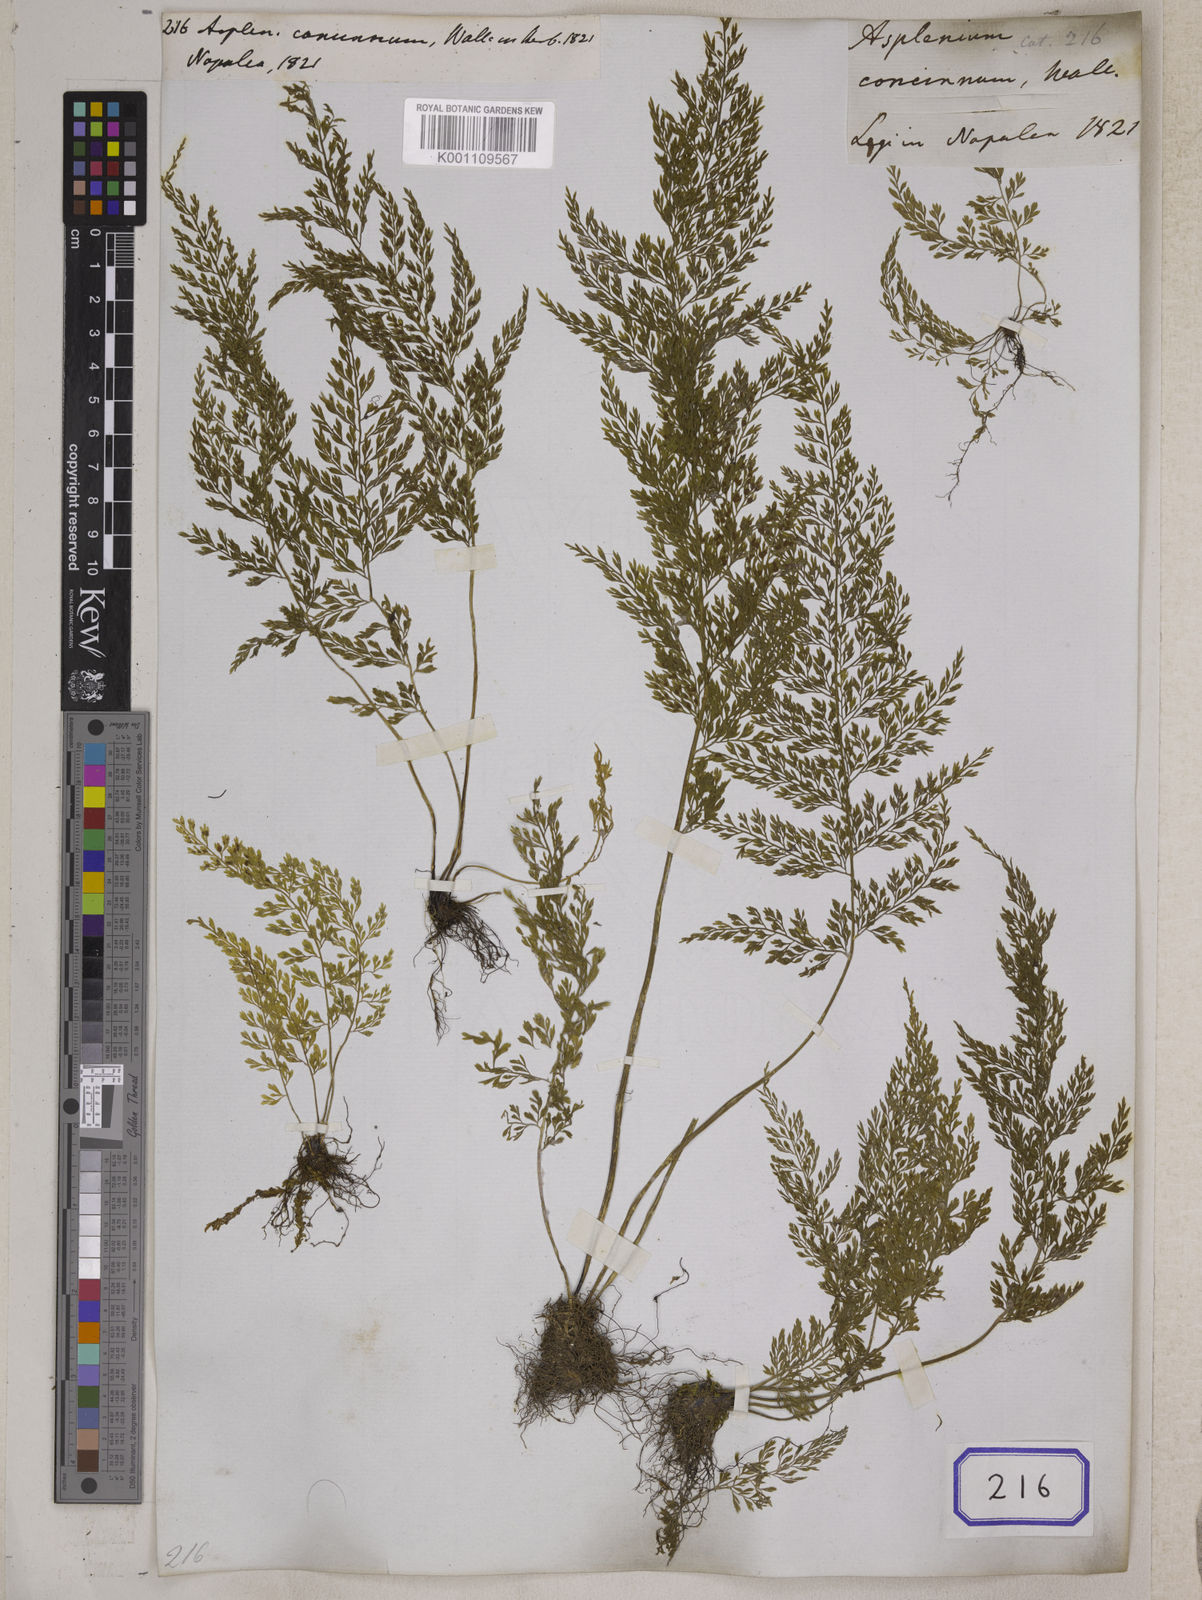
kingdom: Plantae
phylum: Tracheophyta
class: Polypodiopsida
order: Polypodiales
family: Aspleniaceae
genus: Asplenium
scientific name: Asplenium tenuifolium
